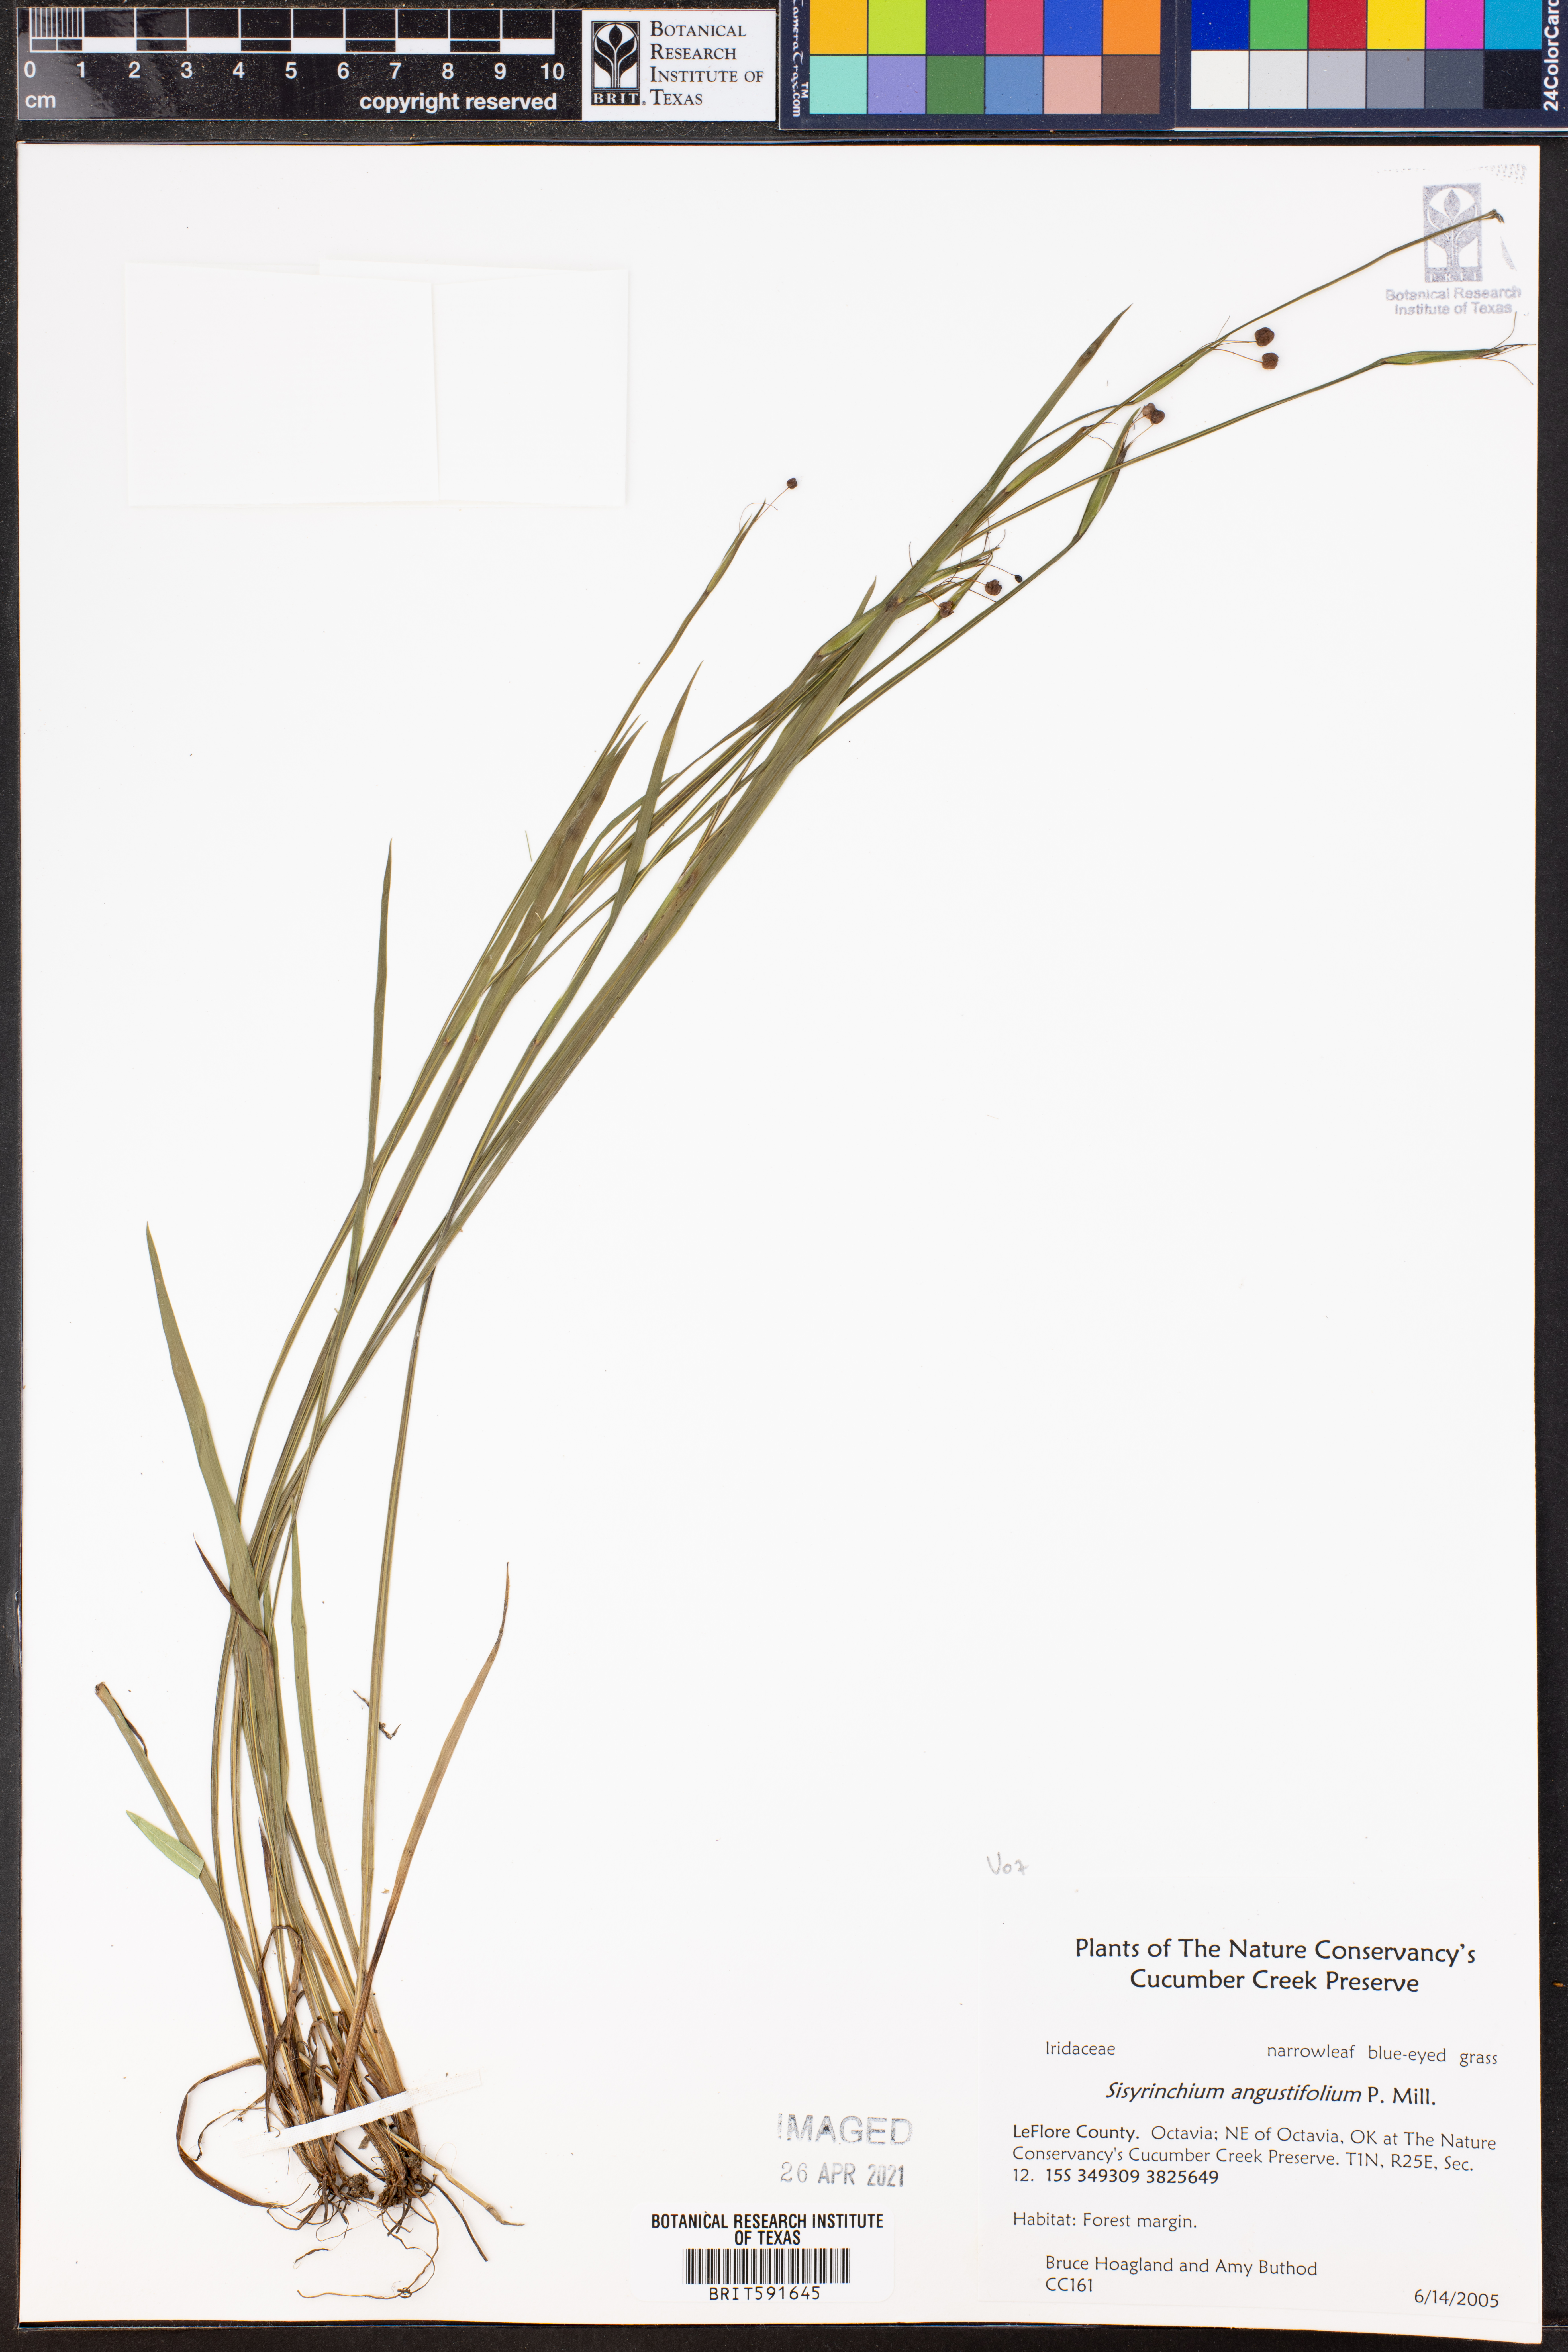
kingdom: Plantae
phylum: Tracheophyta
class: Liliopsida
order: Asparagales
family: Iridaceae
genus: Sisyrinchium
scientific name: Sisyrinchium angustifolium
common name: Narrow-leaf blue-eyed-grass
